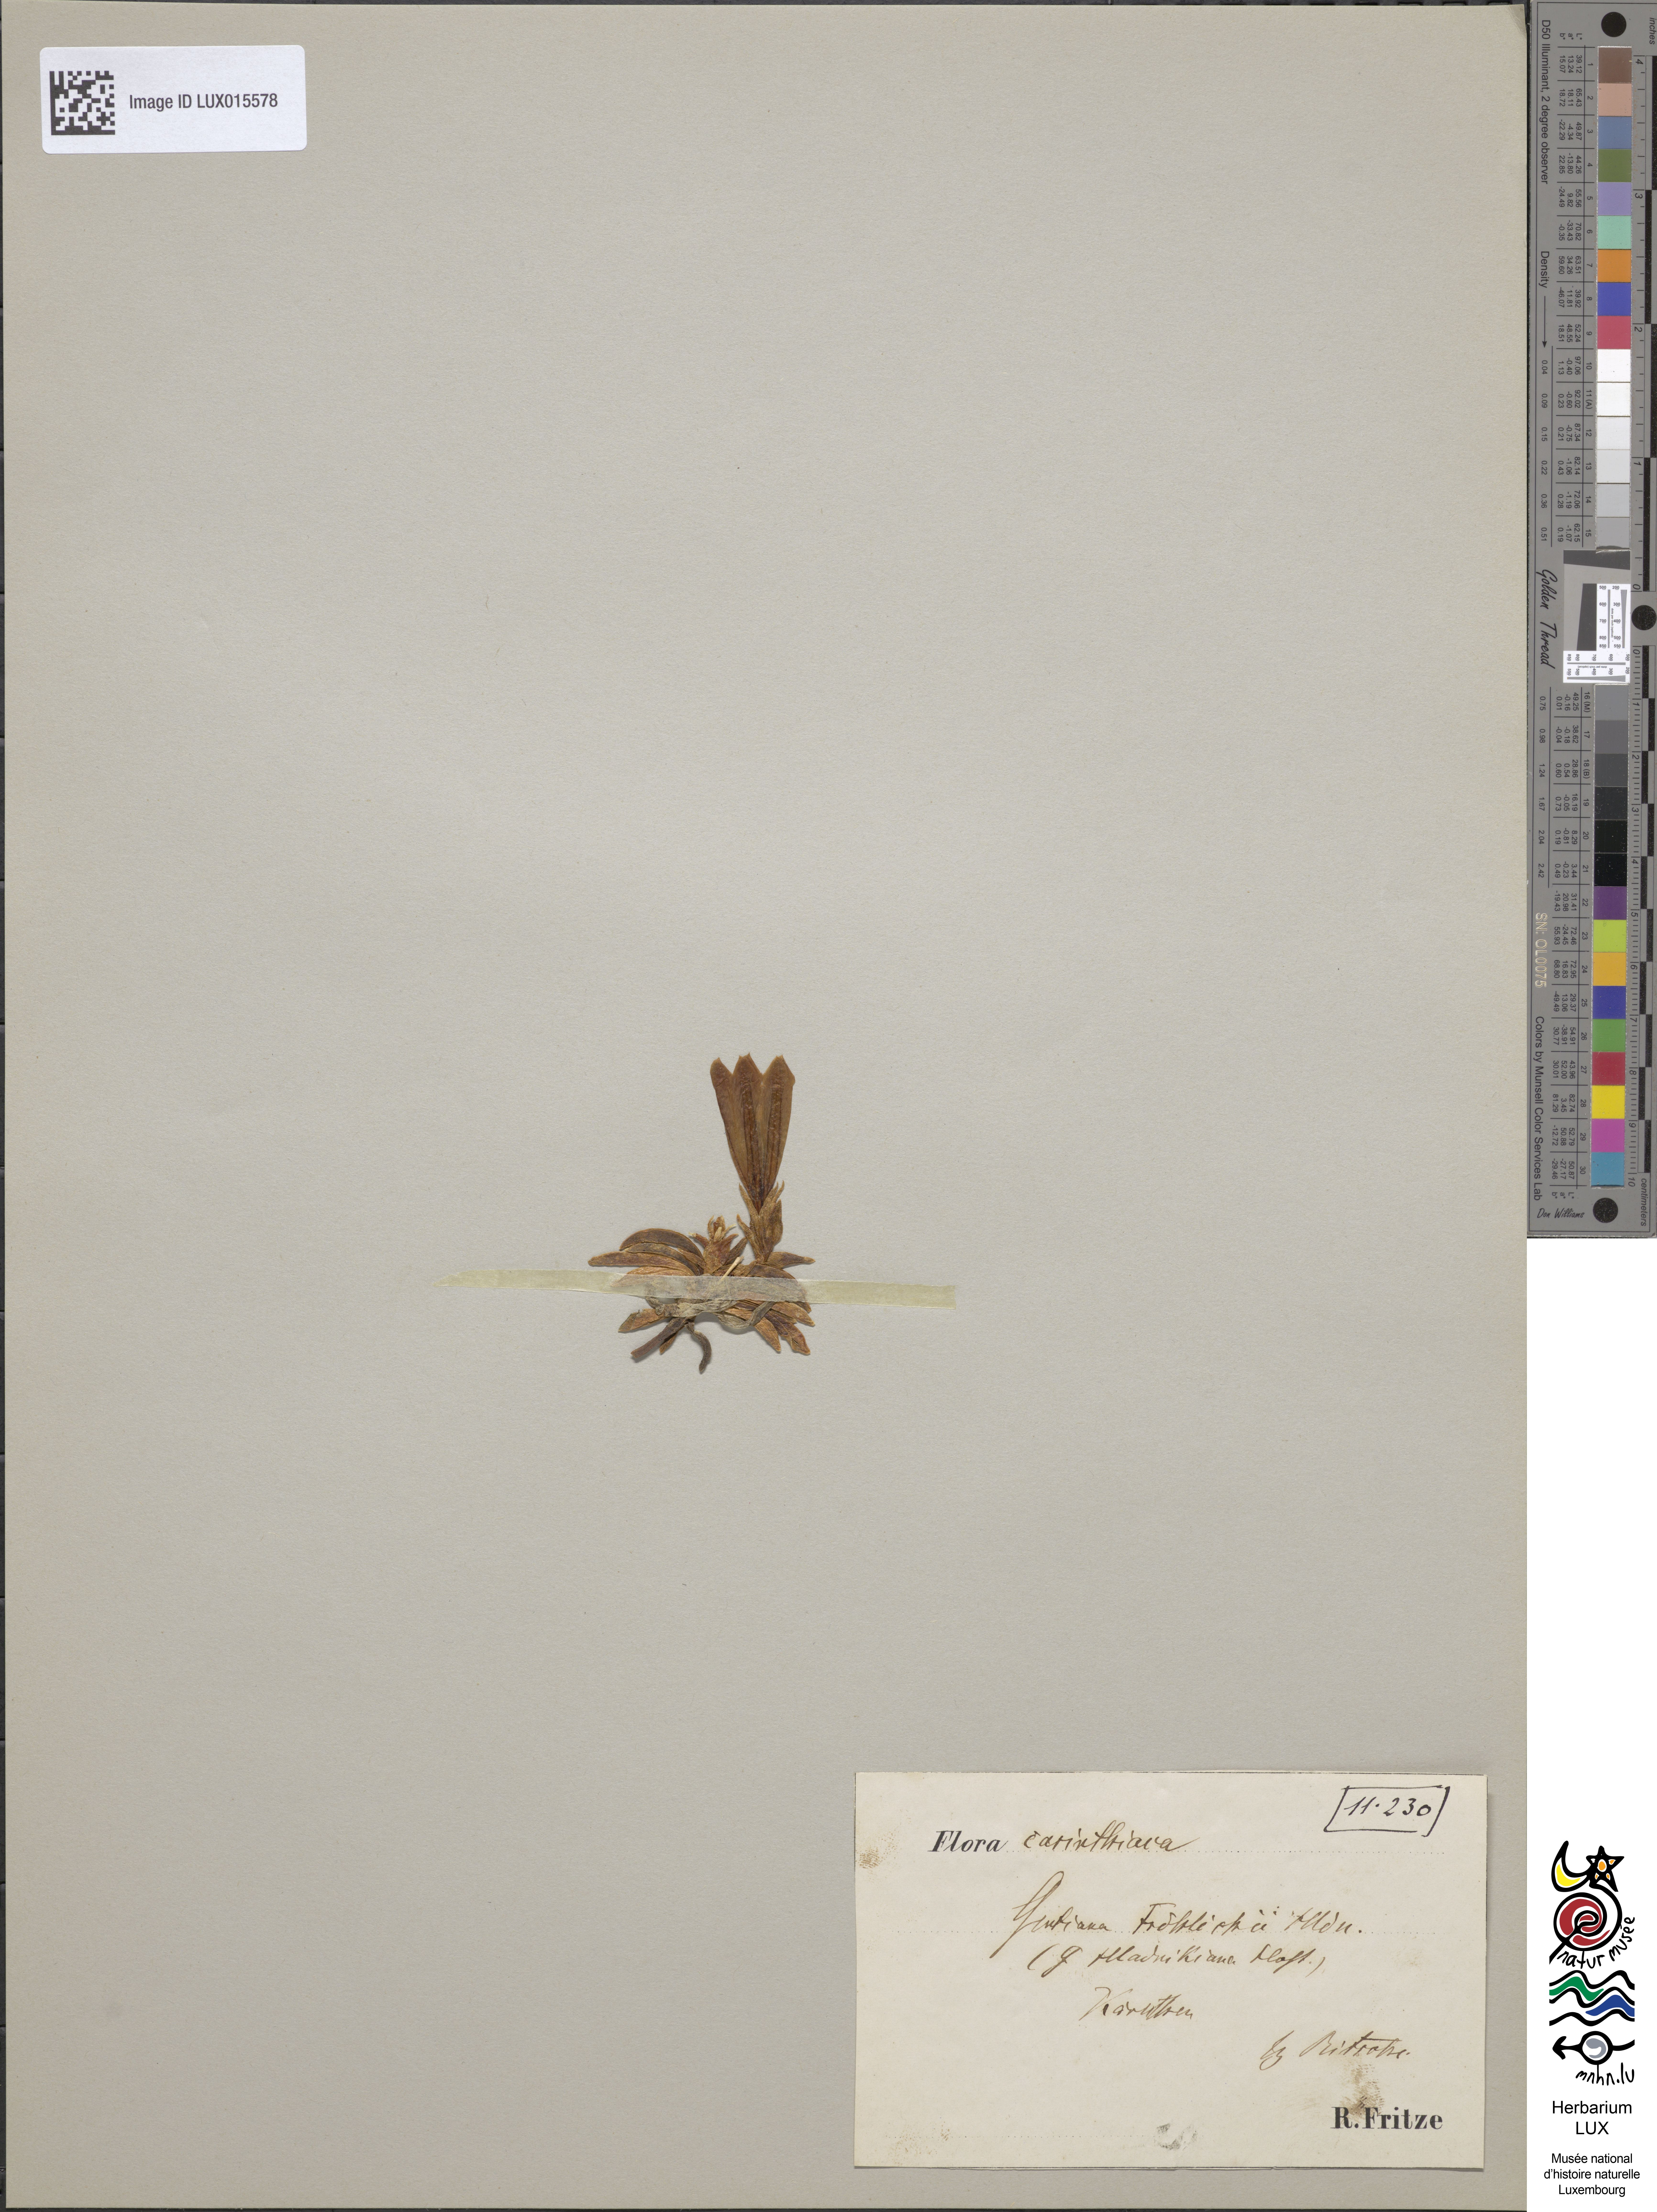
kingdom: Plantae
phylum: Tracheophyta
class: Magnoliopsida
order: Gentianales
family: Gentianaceae
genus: Gentiana
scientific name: Gentiana froelichii
